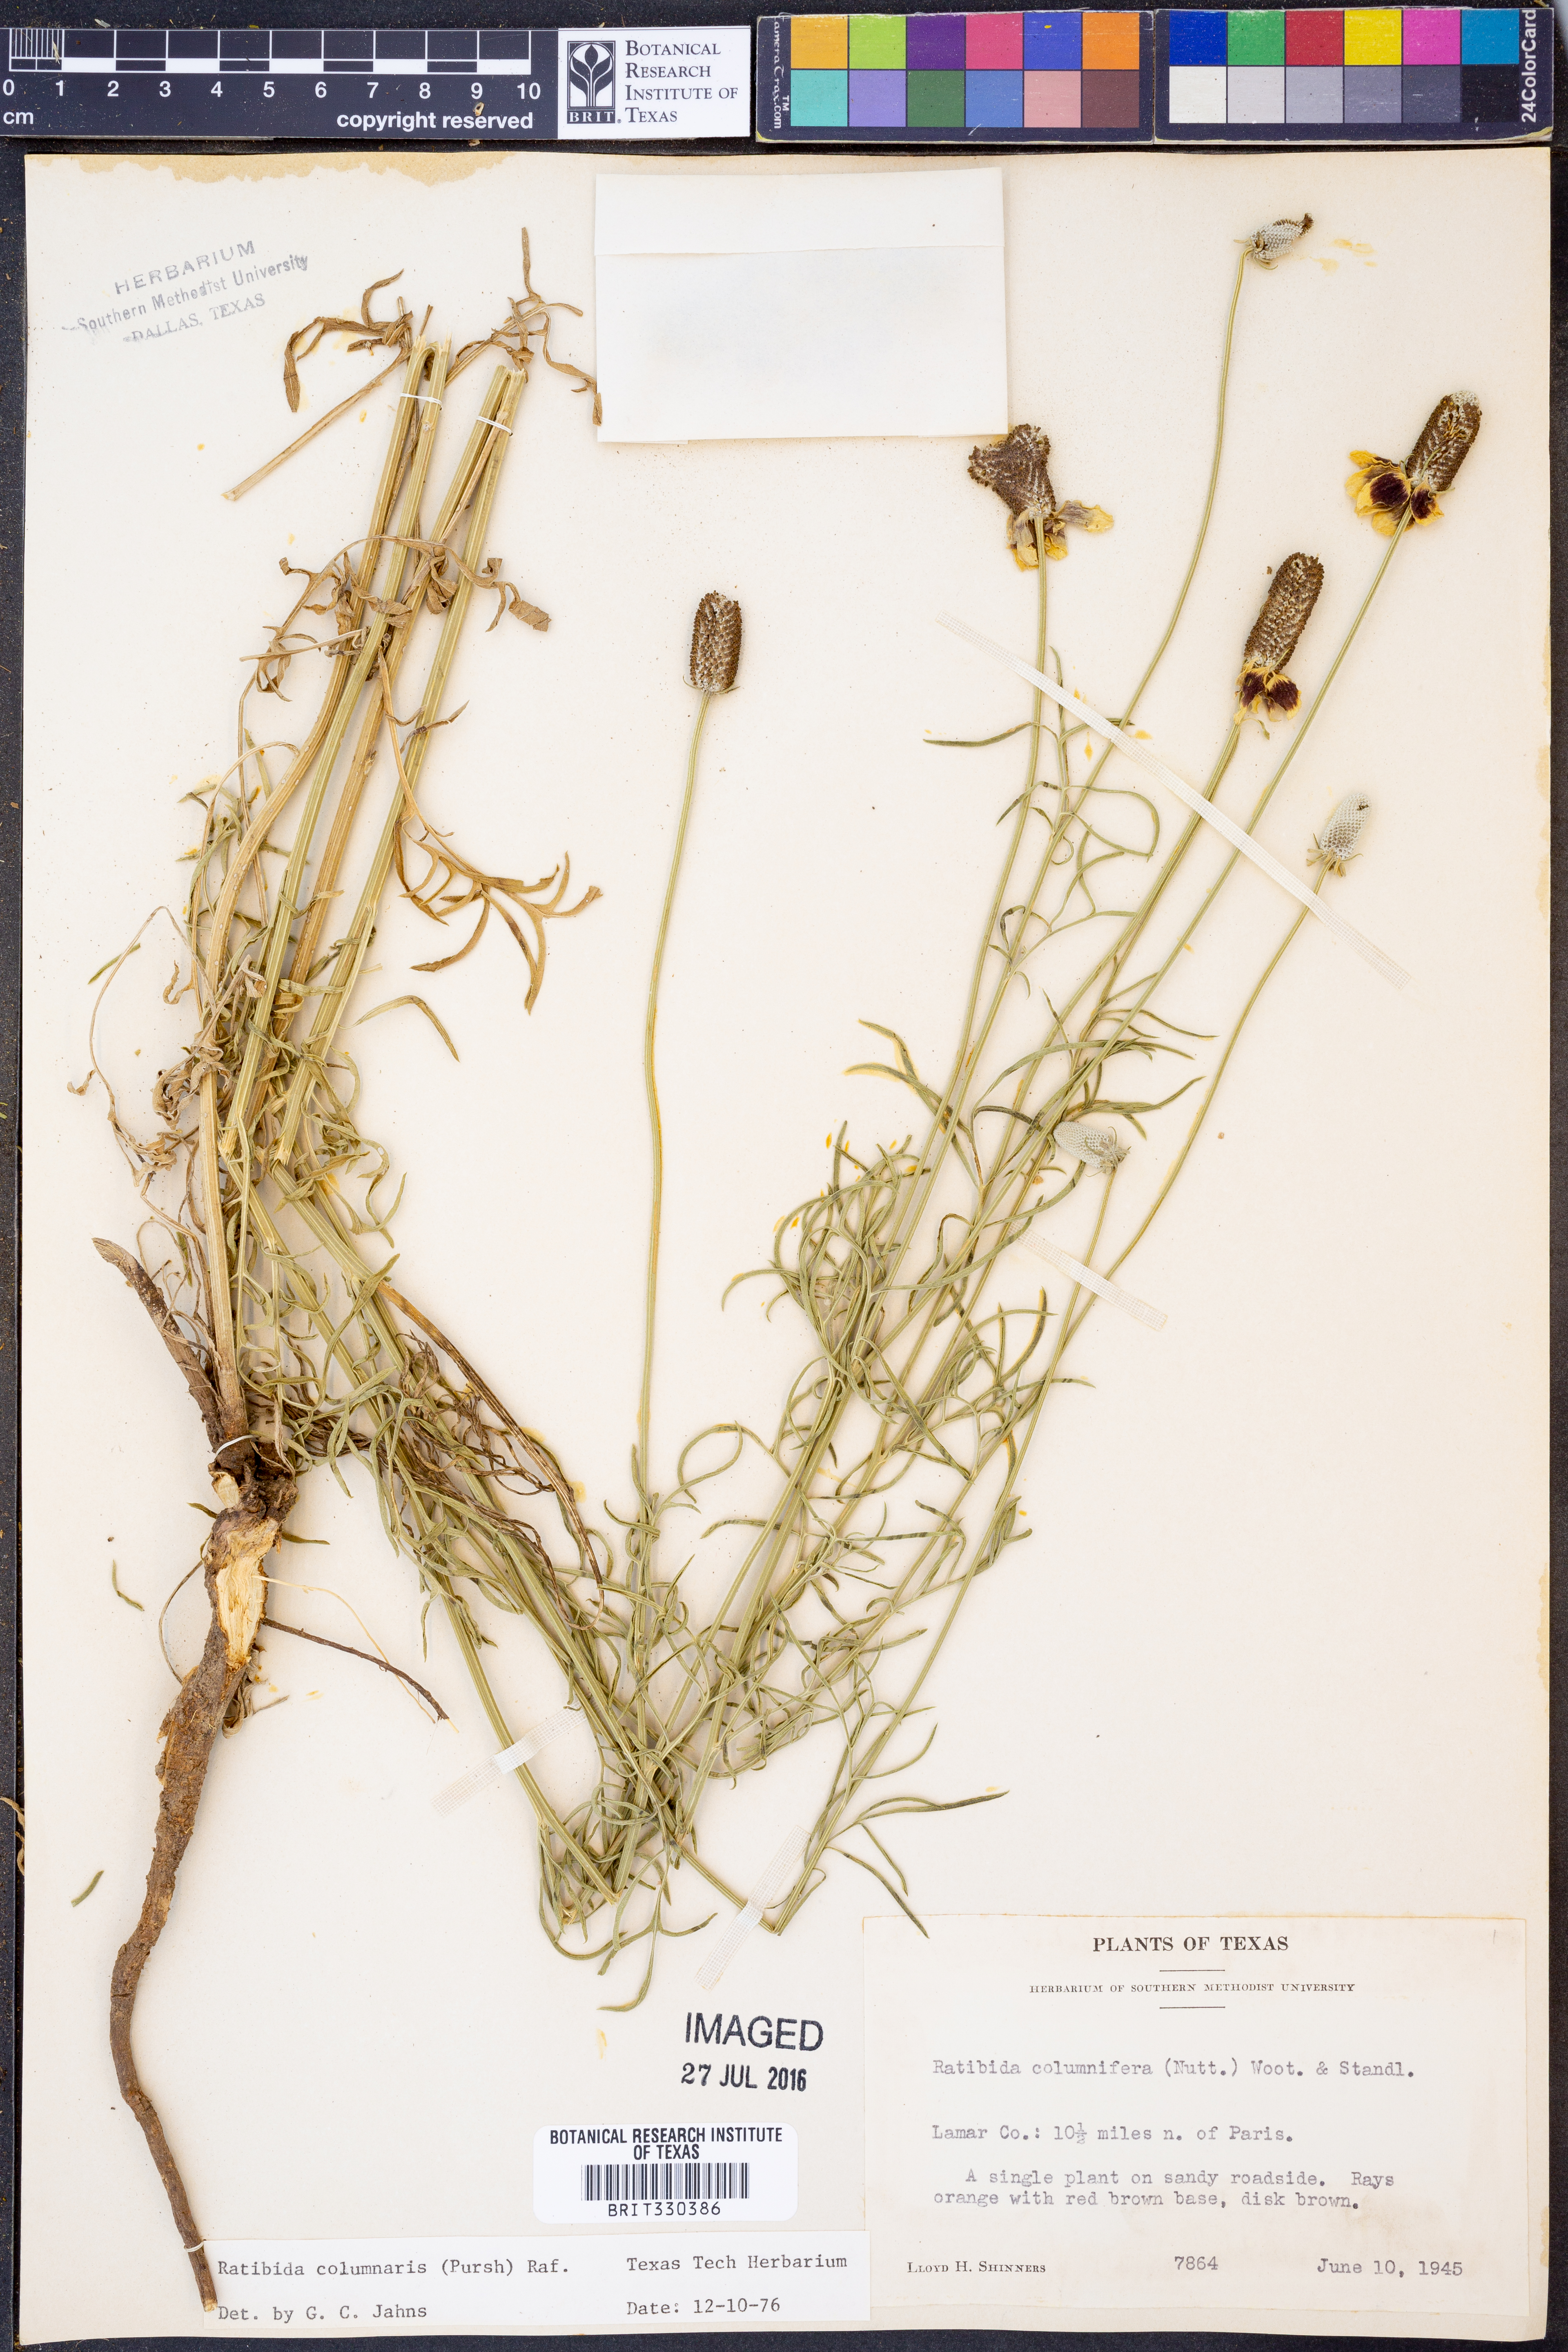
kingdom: Plantae
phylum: Tracheophyta
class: Magnoliopsida
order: Asterales
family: Asteraceae
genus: Ratibida
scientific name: Ratibida columnifera
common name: Prairie coneflower
